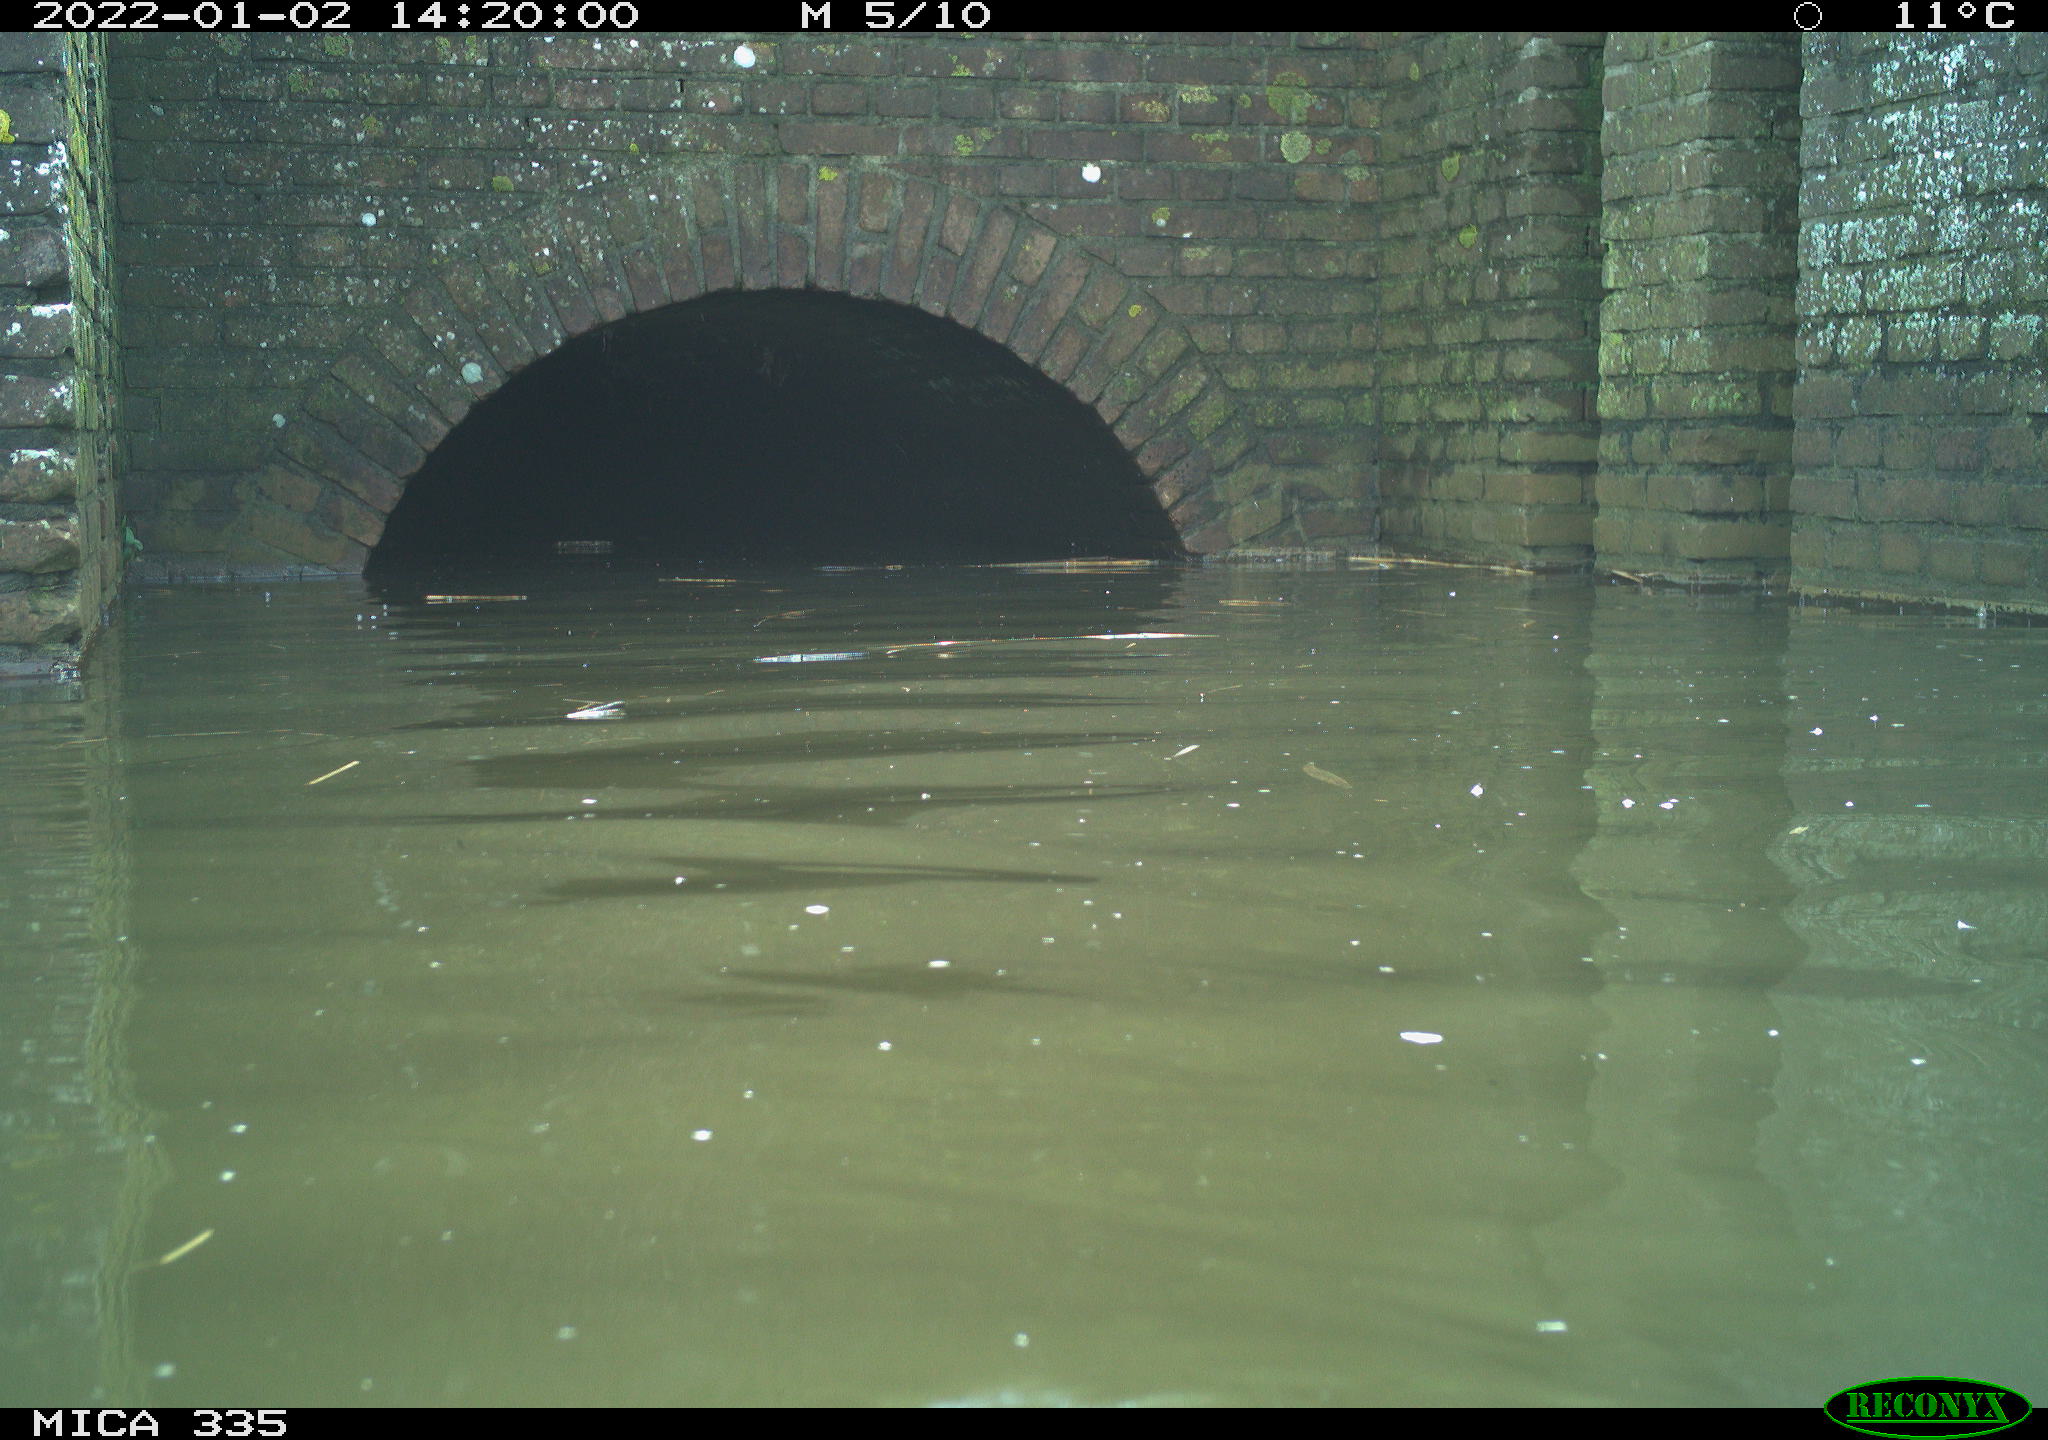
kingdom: Animalia
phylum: Chordata
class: Aves
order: Podicipediformes
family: Podicipedidae
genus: Podiceps
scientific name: Podiceps cristatus
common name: Great crested grebe
